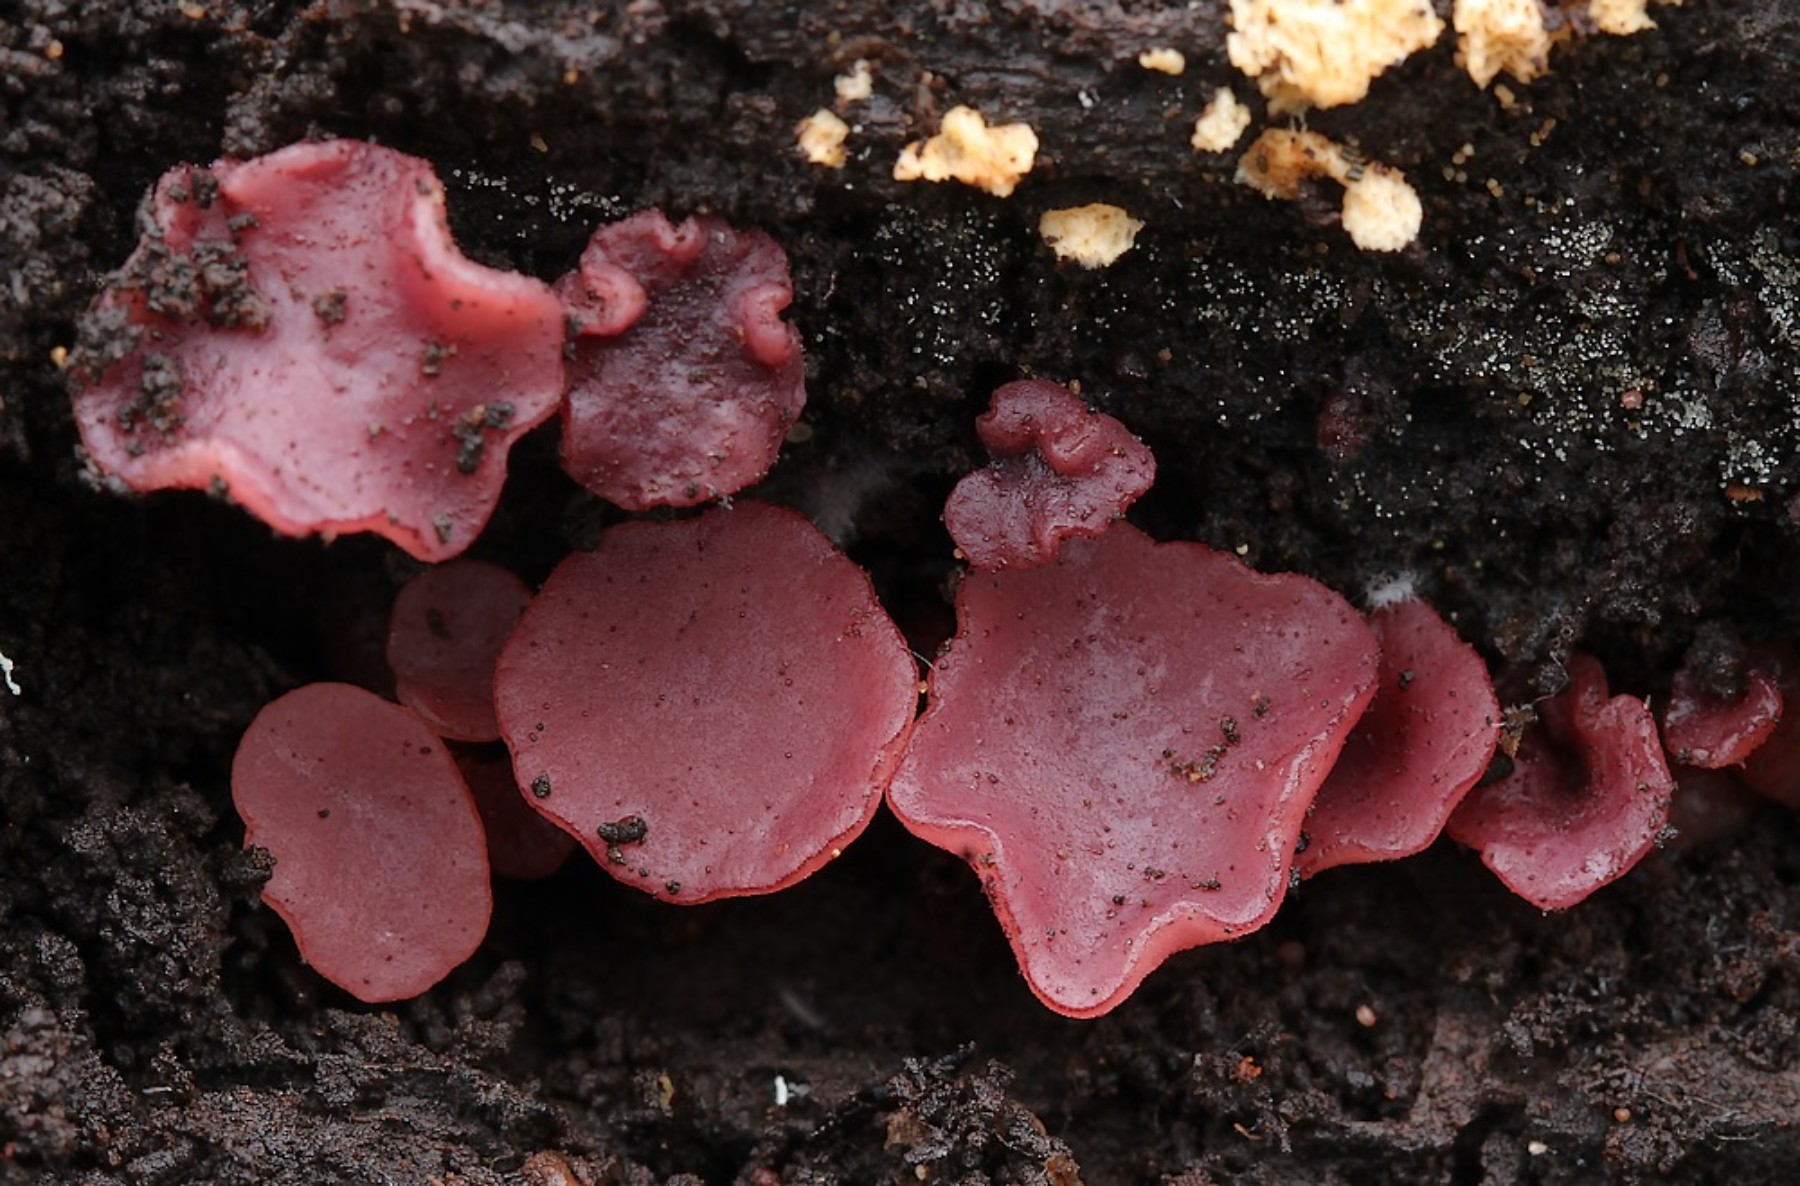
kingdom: Fungi
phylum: Ascomycota
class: Leotiomycetes
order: Helotiales
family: Gelatinodiscaceae
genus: Ascocoryne
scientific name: Ascocoryne cylichnium
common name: stor sejskive
